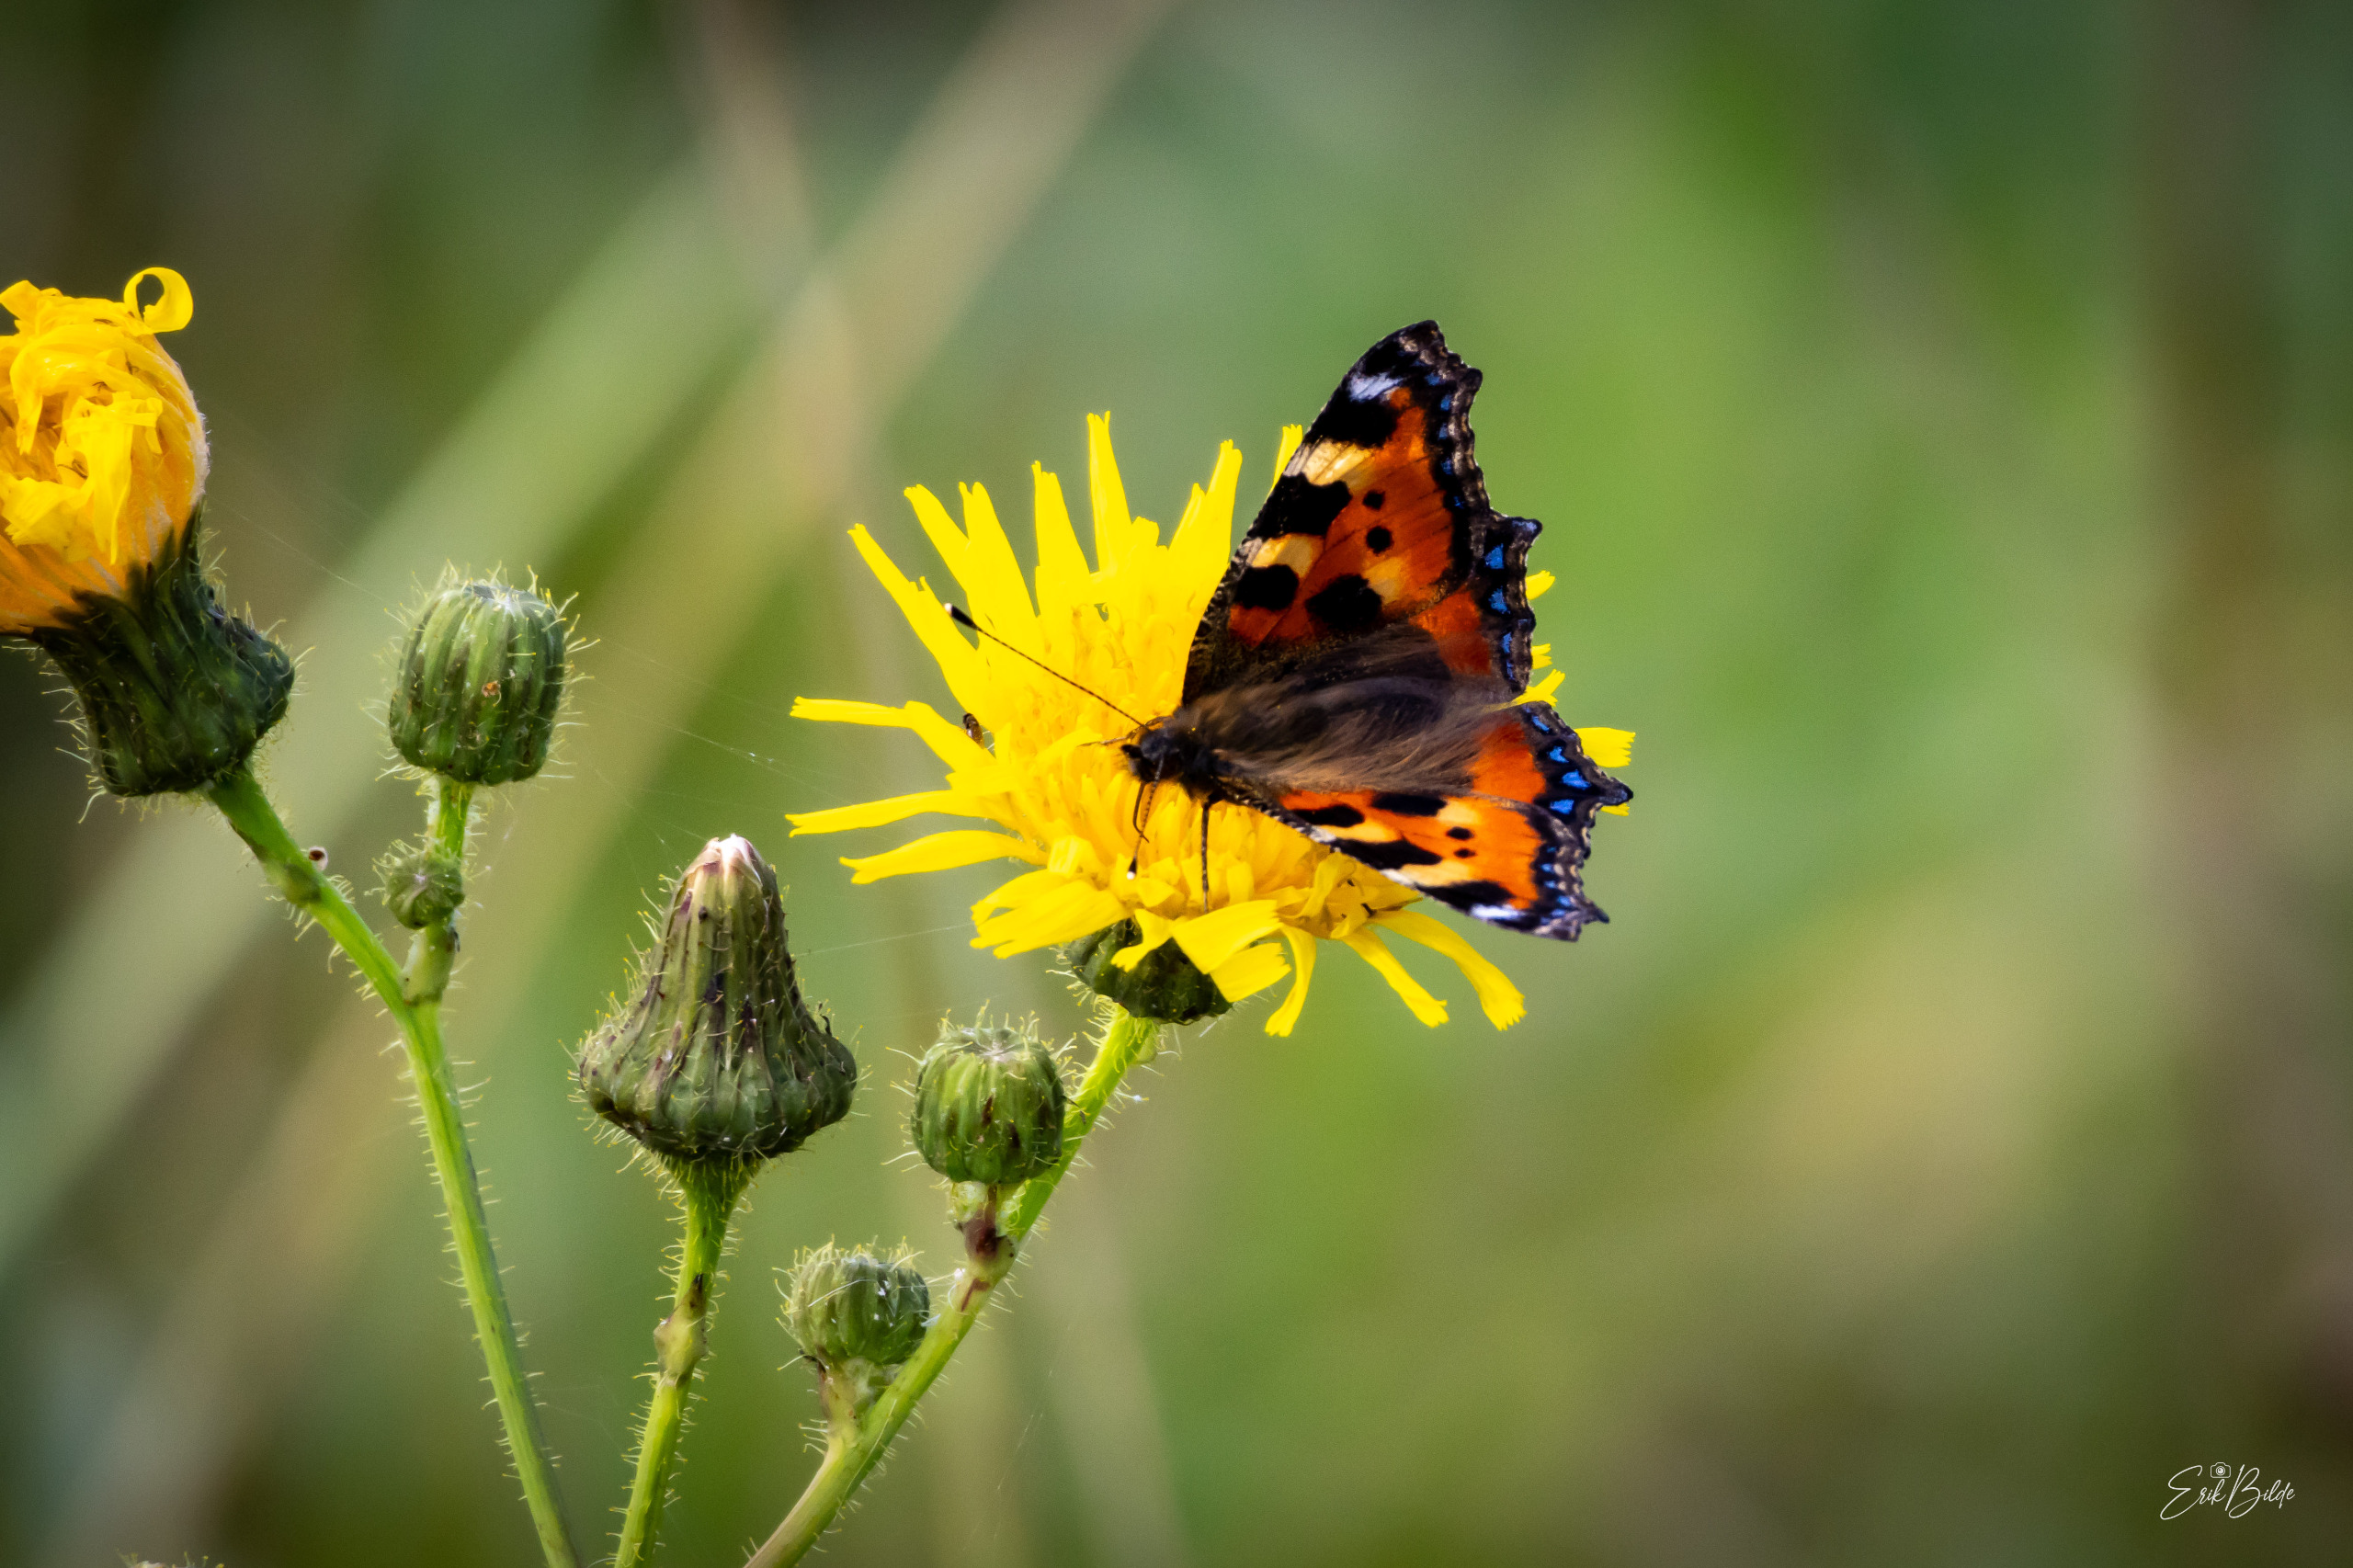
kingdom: Animalia
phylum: Arthropoda
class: Insecta
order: Lepidoptera
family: Nymphalidae
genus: Aglais
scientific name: Aglais urticae
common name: Nældens takvinge
